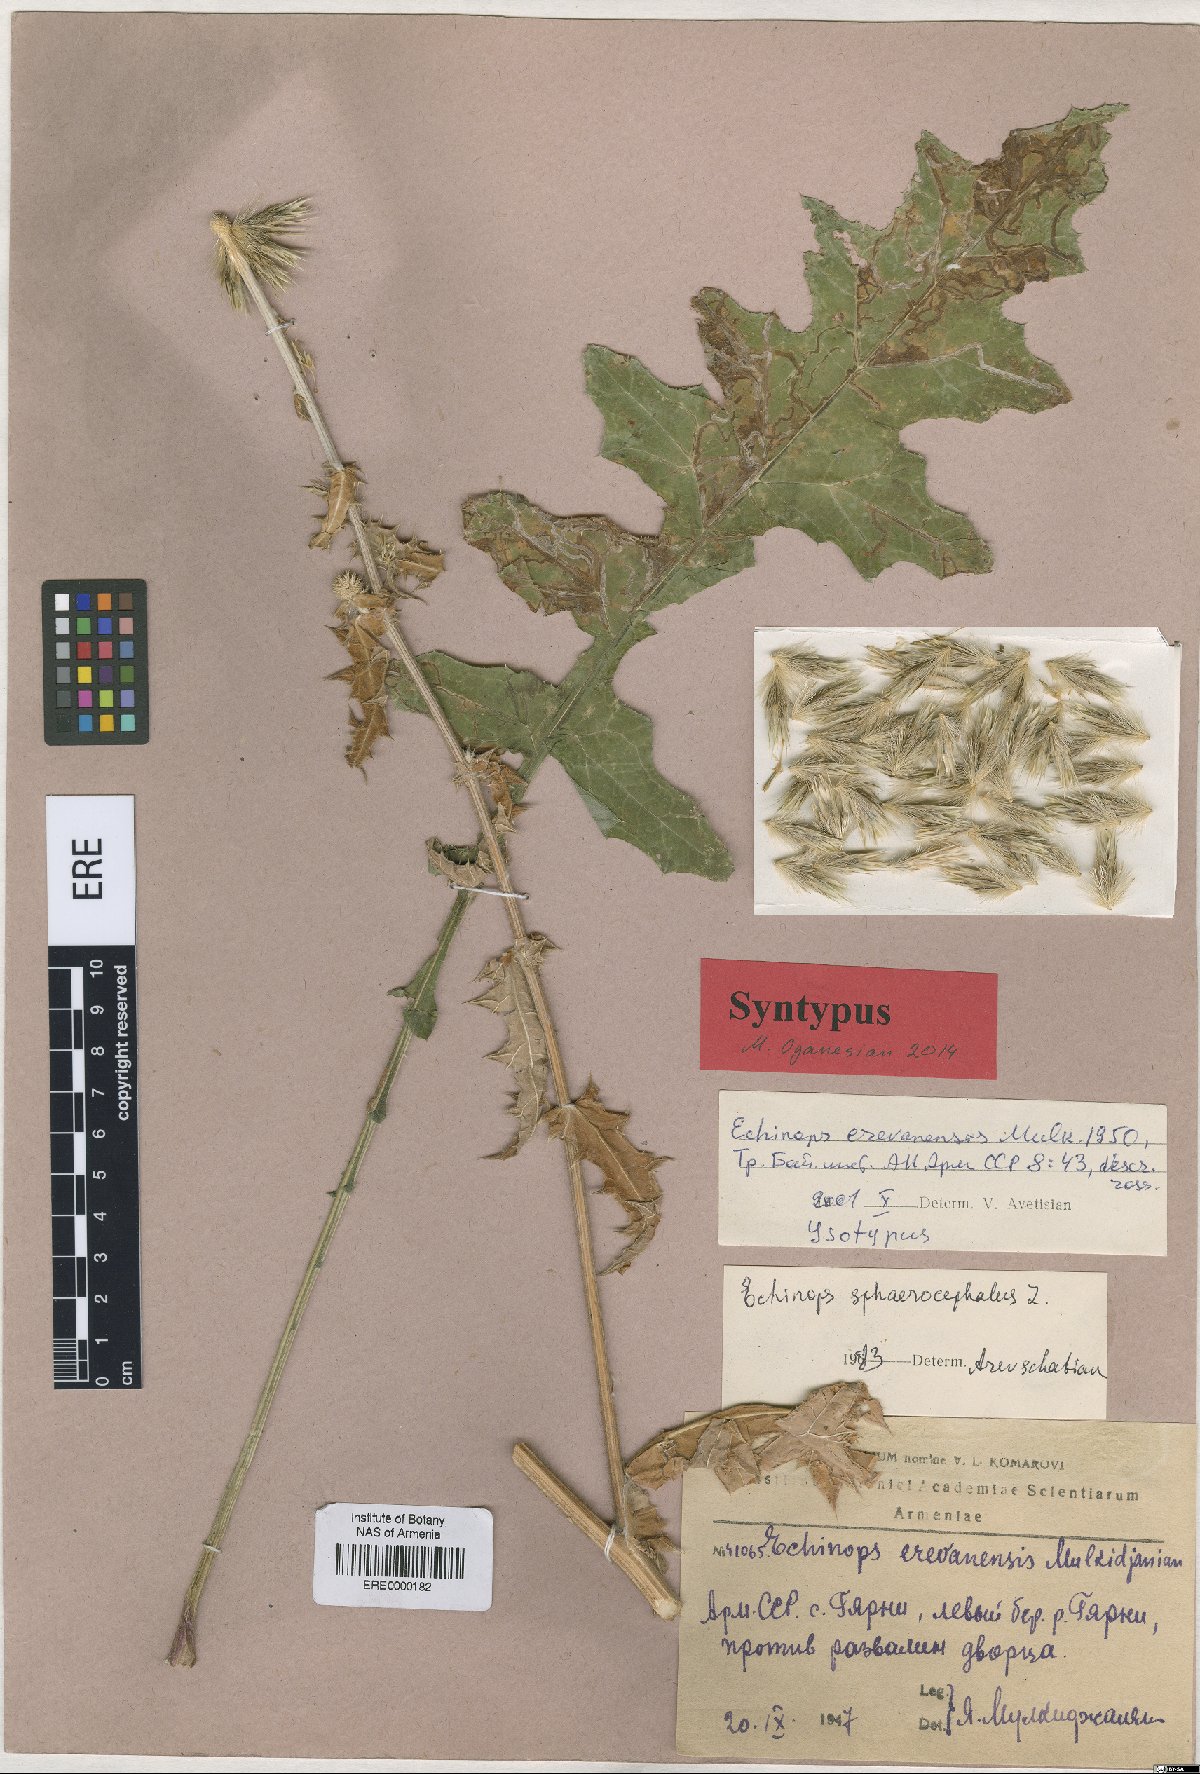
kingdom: Plantae
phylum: Tracheophyta
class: Magnoliopsida
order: Asterales
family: Asteraceae
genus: Echinops
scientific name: Echinops sphaerocephalus
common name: Glandular globe-thistle
